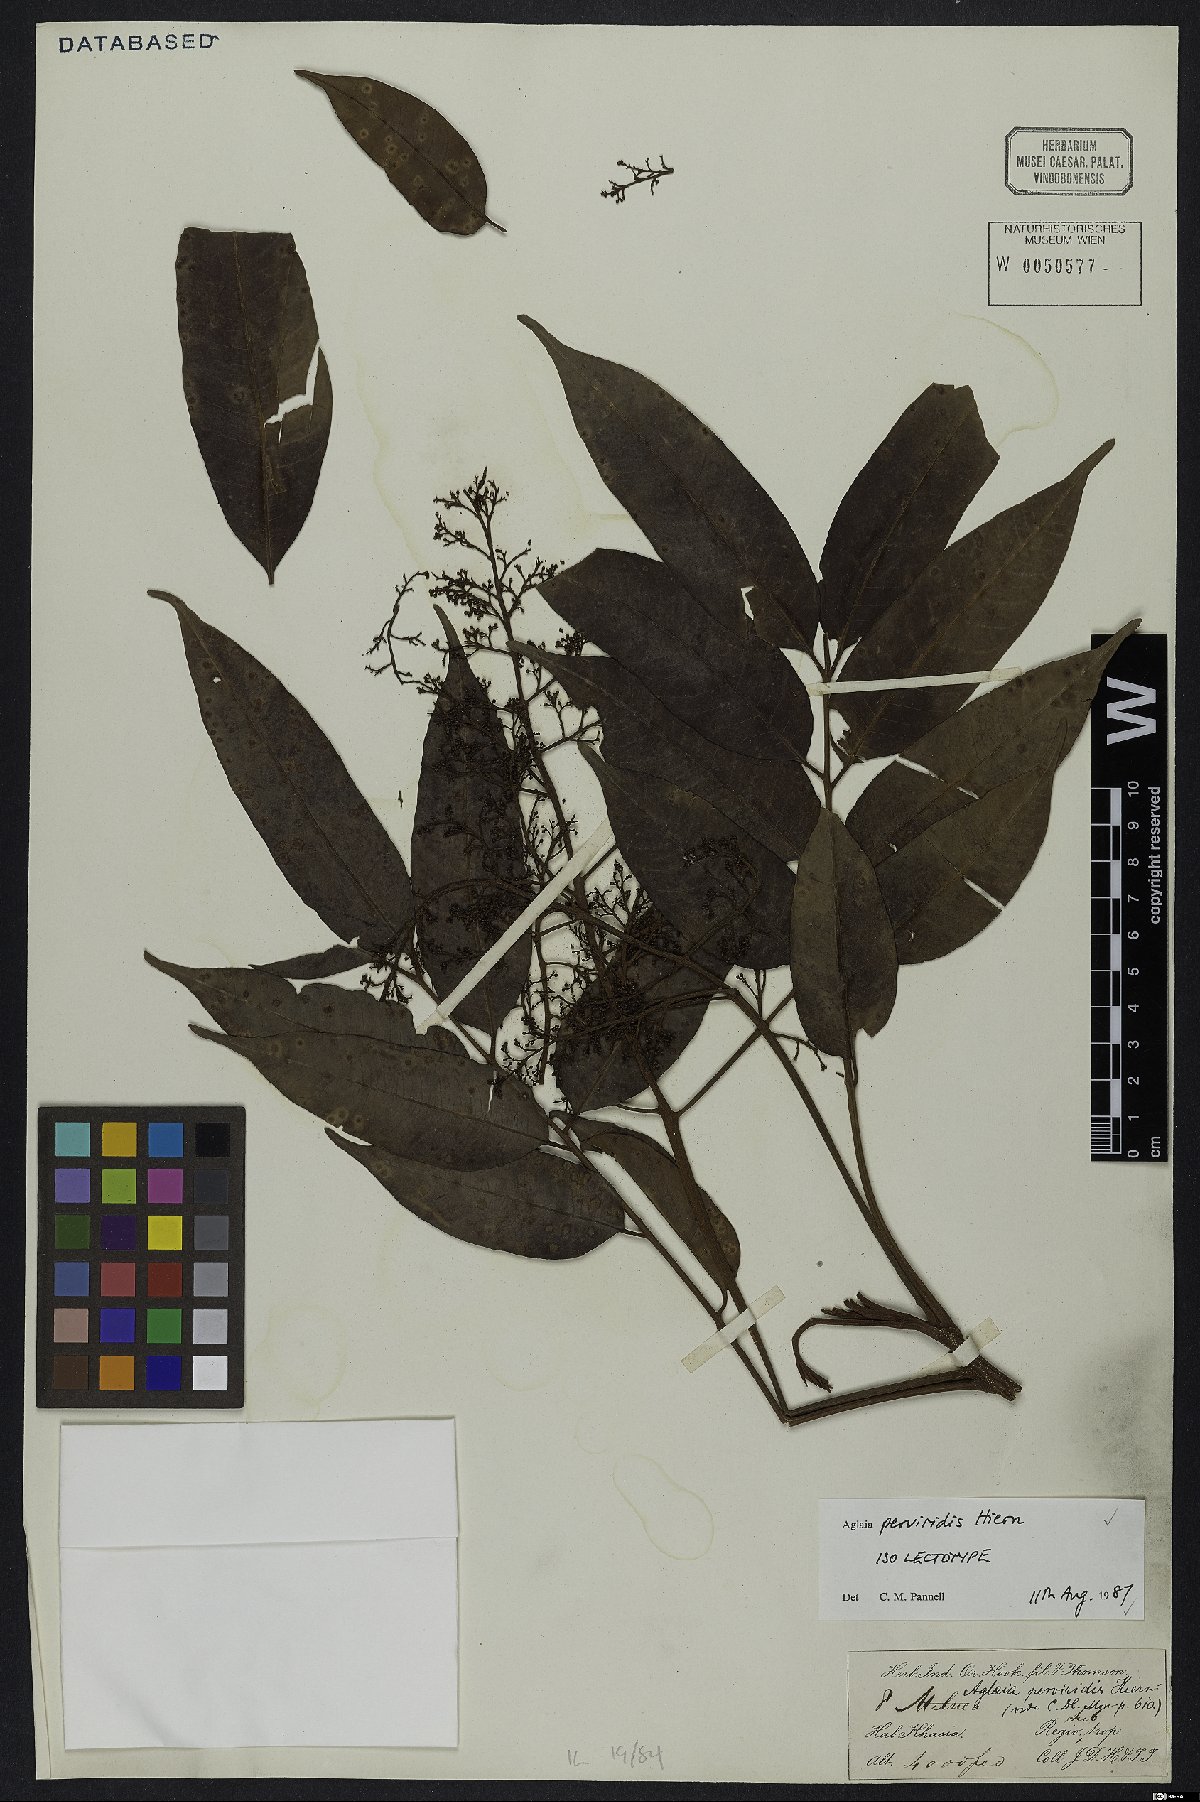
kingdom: Plantae
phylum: Tracheophyta
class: Magnoliopsida
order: Sapindales
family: Meliaceae
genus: Aglaia
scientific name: Aglaia perviridis
